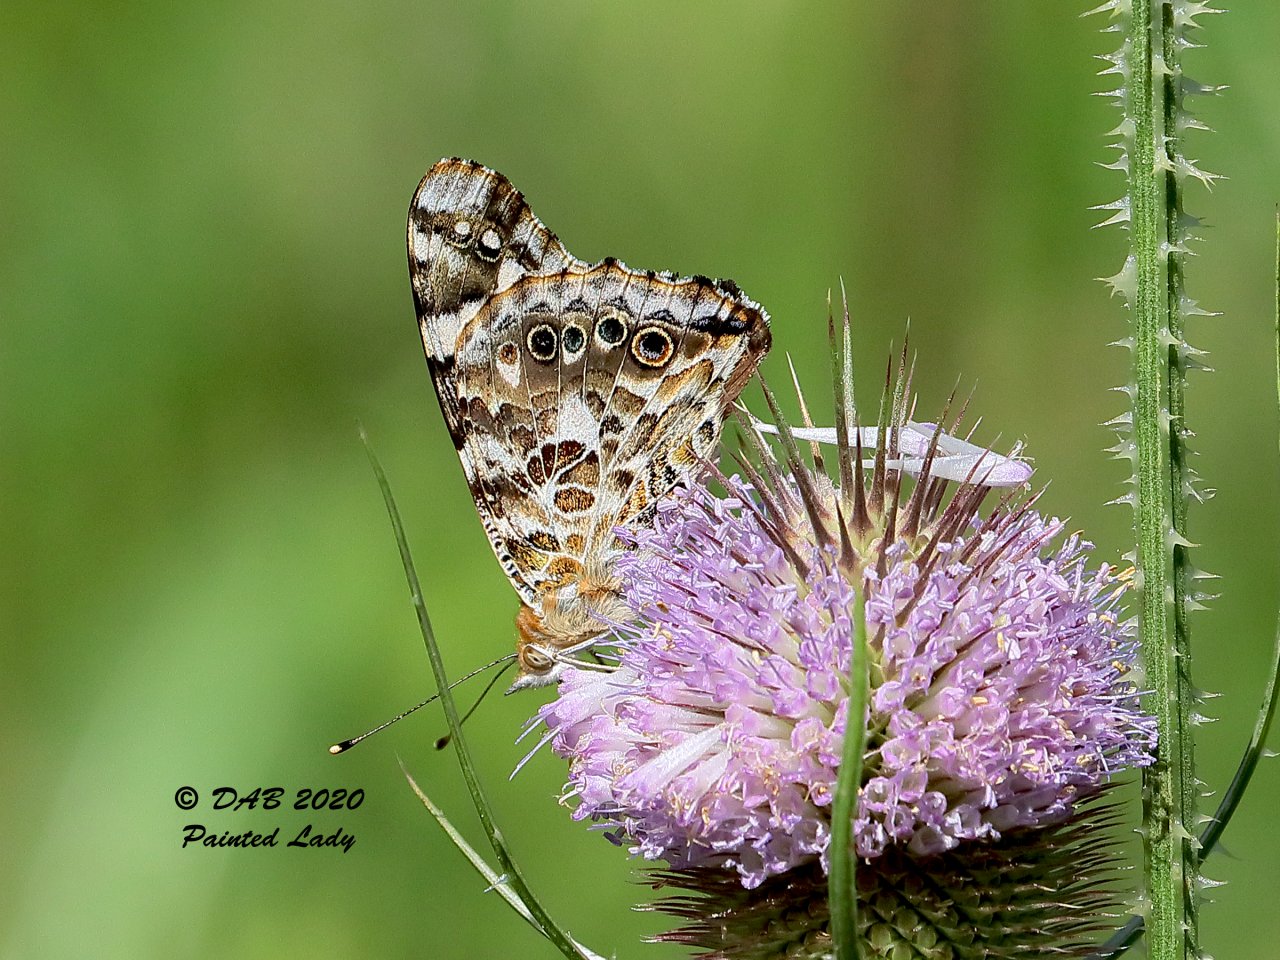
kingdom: Animalia
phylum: Arthropoda
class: Insecta
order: Lepidoptera
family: Nymphalidae
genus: Vanessa
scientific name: Vanessa cardui
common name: Painted Lady
